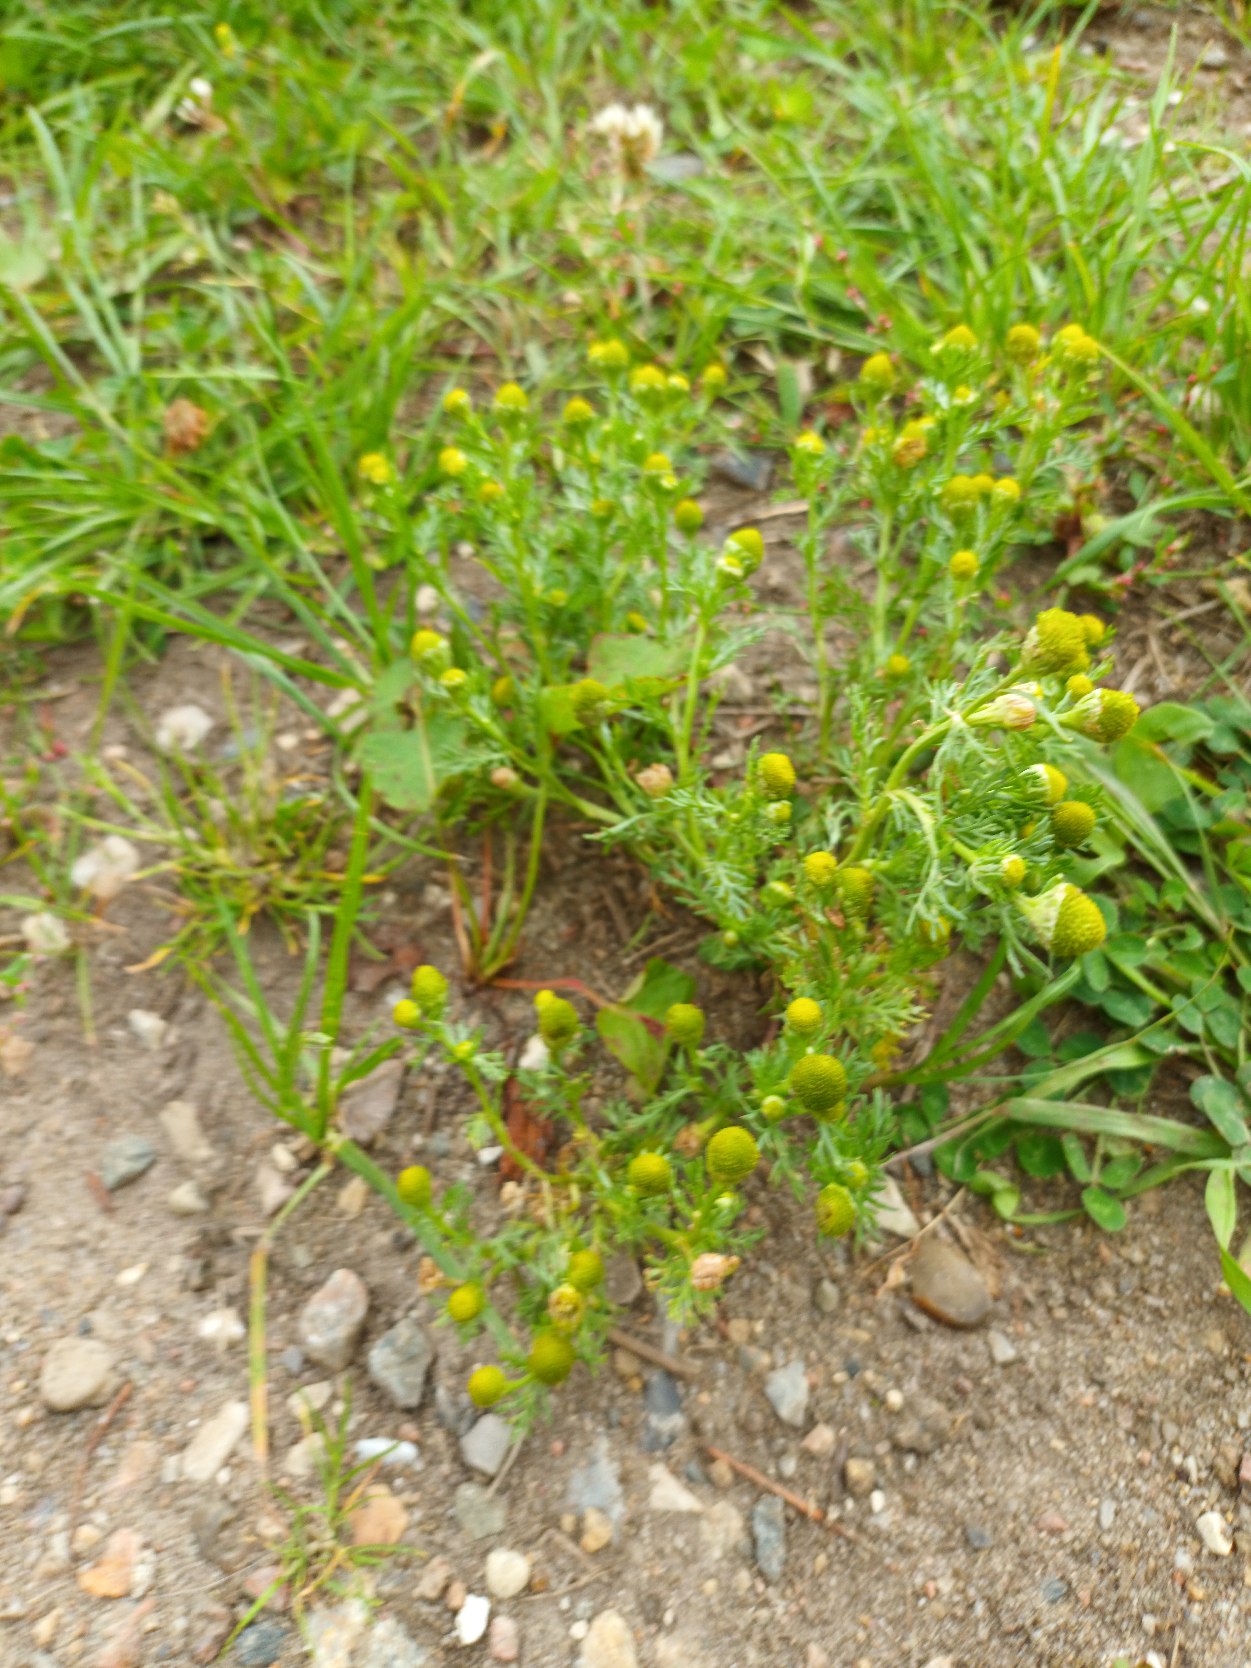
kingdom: Plantae
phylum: Tracheophyta
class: Magnoliopsida
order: Asterales
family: Asteraceae
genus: Matricaria
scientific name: Matricaria discoidea
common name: Skive-kamille
